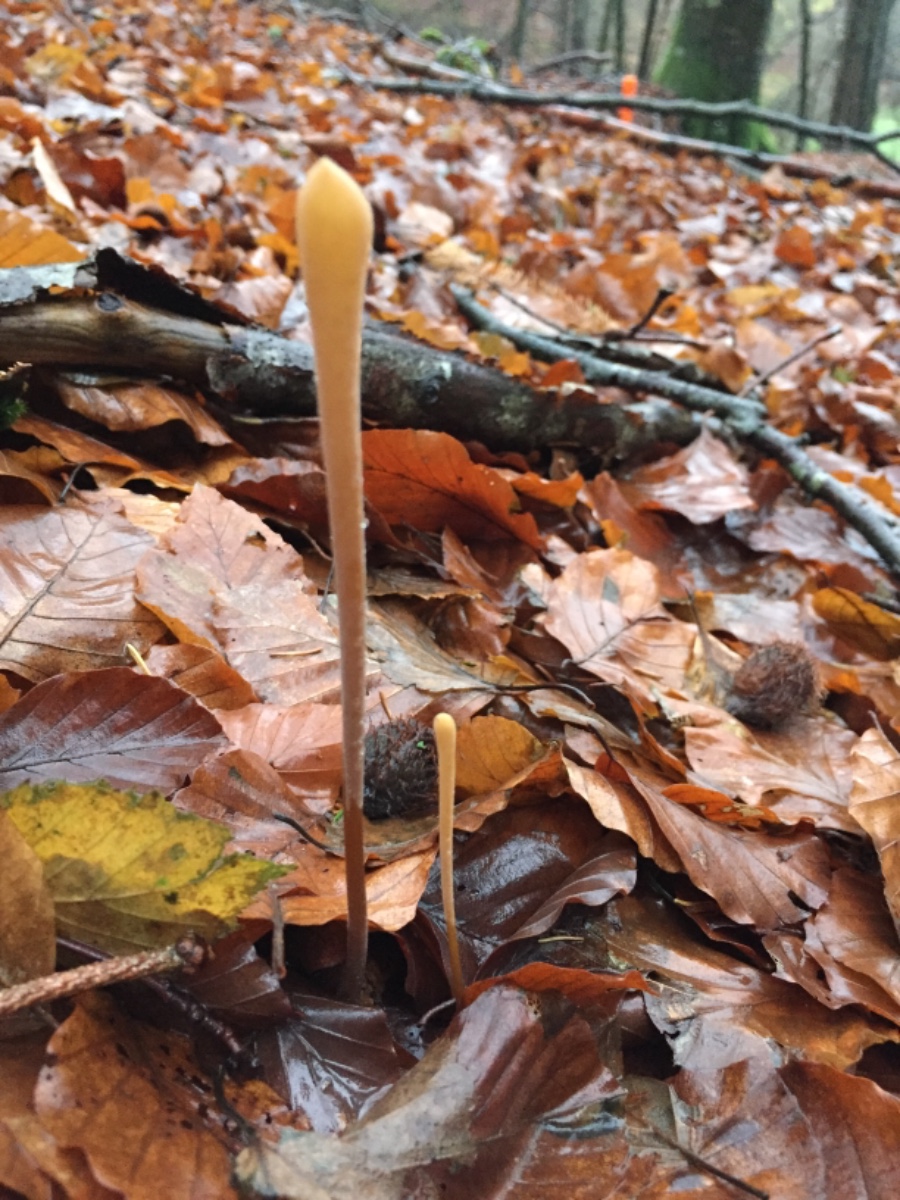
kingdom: Fungi
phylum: Basidiomycota
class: Agaricomycetes
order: Agaricales
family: Typhulaceae
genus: Typhula
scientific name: Typhula fistulosa
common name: pibet rørkølle
